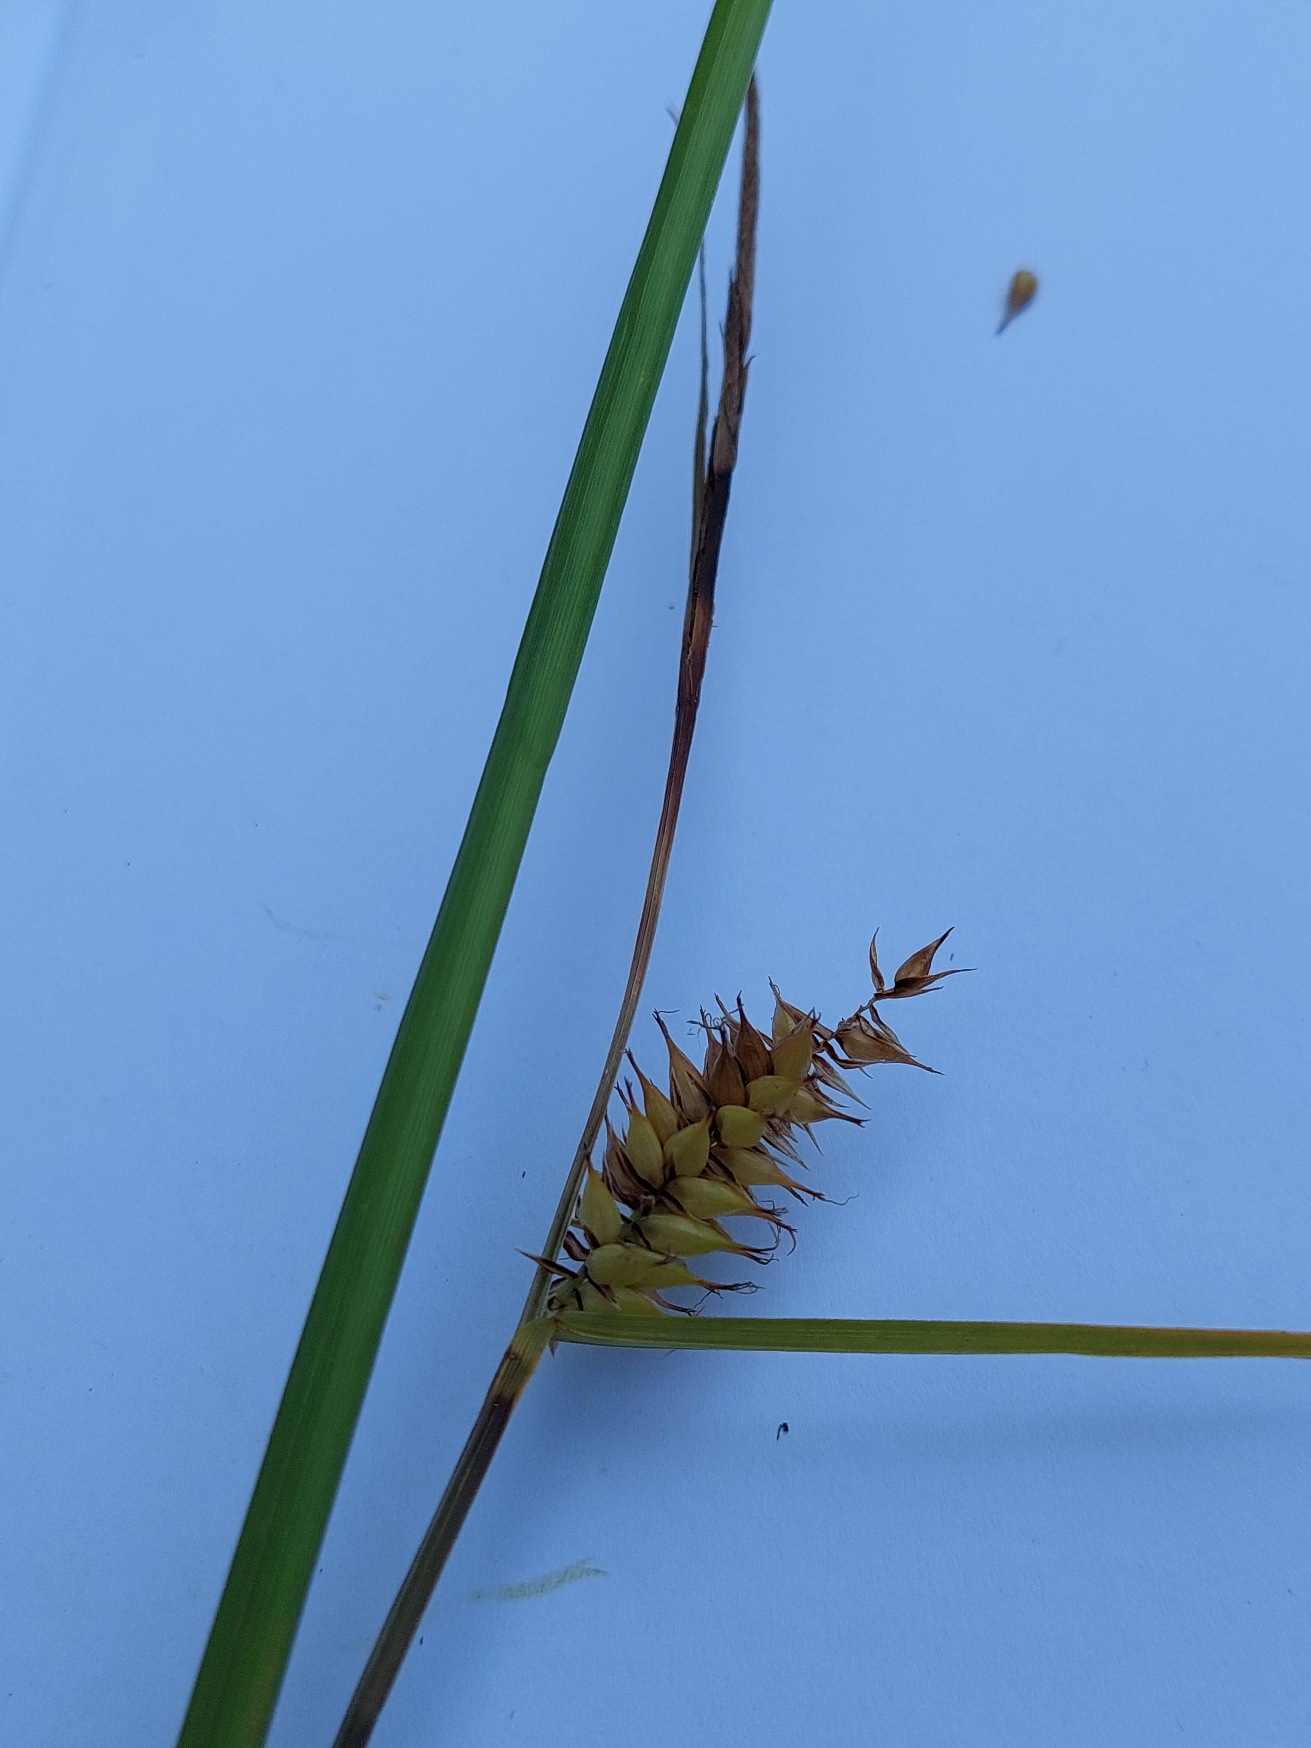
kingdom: Plantae
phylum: Tracheophyta
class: Liliopsida
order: Poales
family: Cyperaceae
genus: Carex
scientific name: Carex vesicaria
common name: Blære-star
